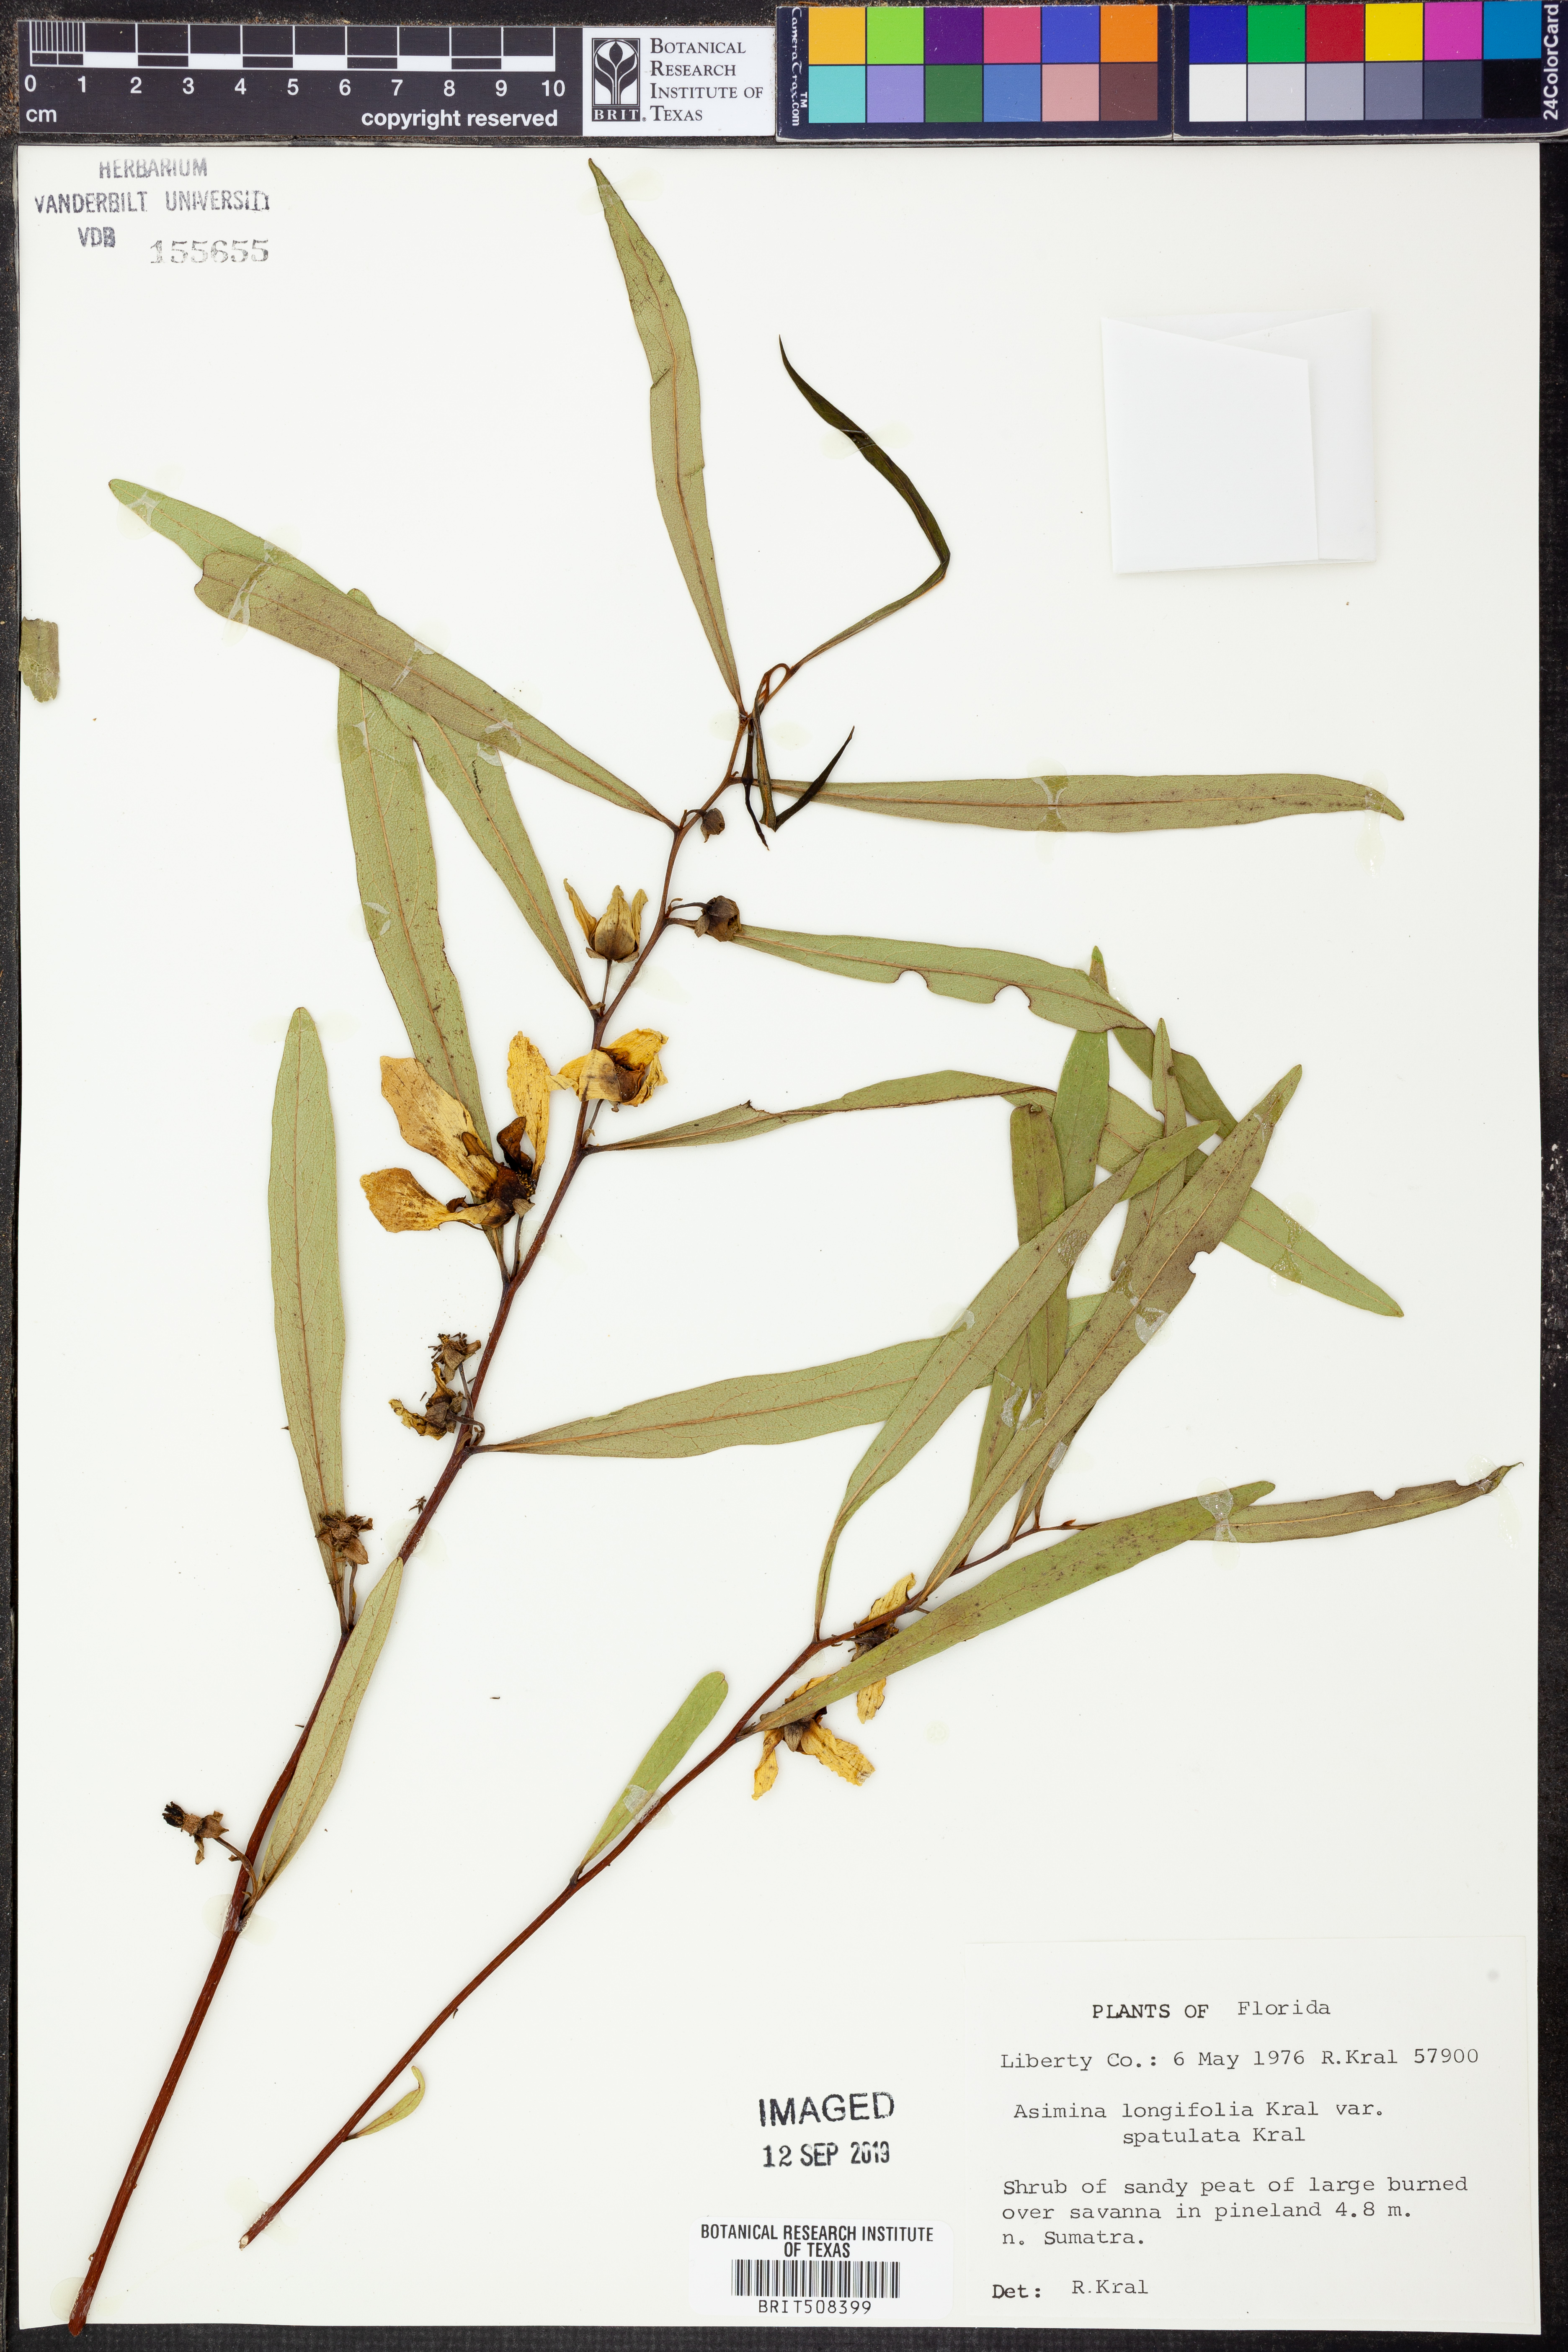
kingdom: Plantae
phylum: Tracheophyta
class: Magnoliopsida
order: Magnoliales
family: Annonaceae
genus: Asimina
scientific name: Asimina longifolia
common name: Polecatbush
